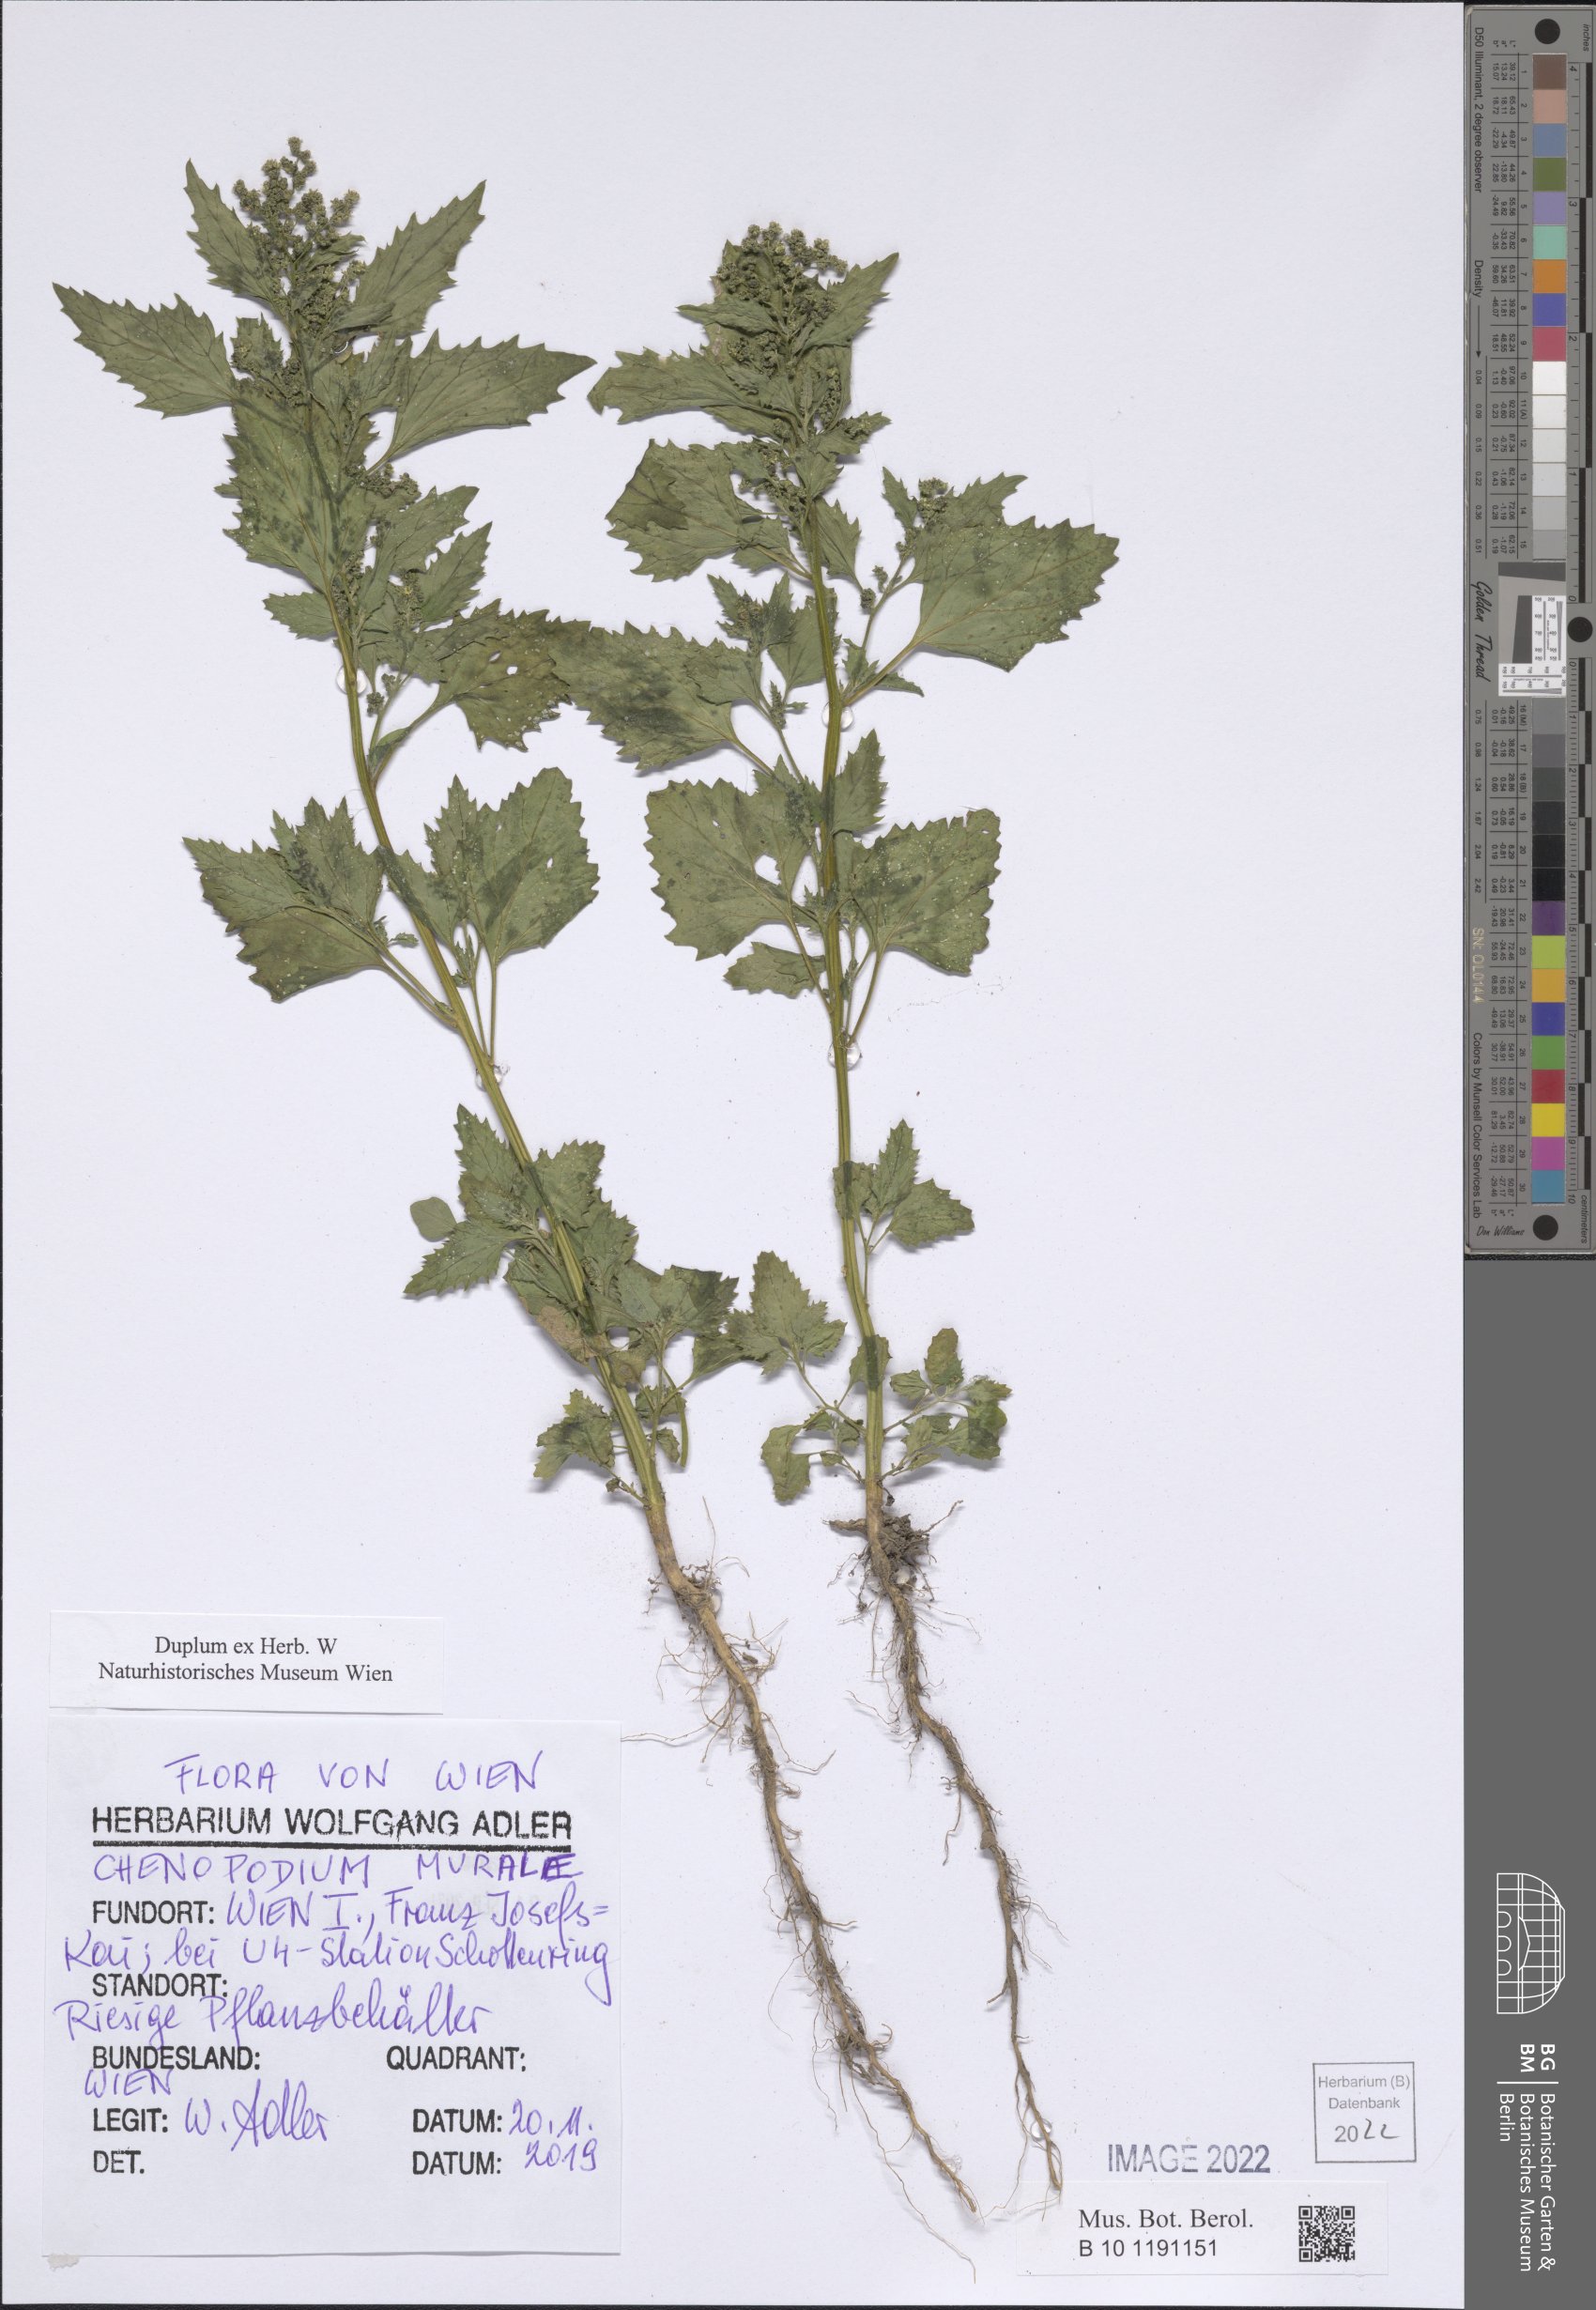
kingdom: Plantae
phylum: Tracheophyta
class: Magnoliopsida
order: Caryophyllales
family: Amaranthaceae
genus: Chenopodiastrum
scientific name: Chenopodiastrum murale
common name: Sowbane
